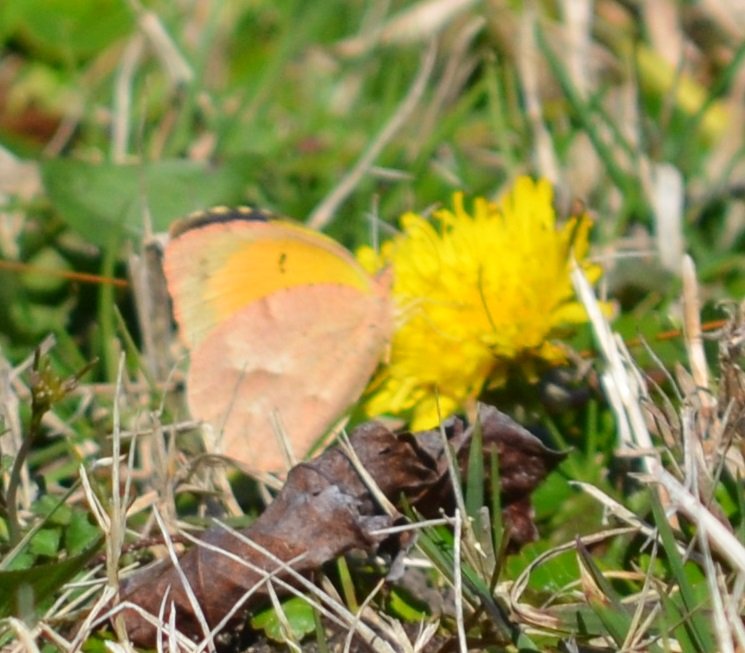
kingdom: Animalia
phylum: Arthropoda
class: Insecta
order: Lepidoptera
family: Pieridae
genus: Abaeis
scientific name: Abaeis nicippe
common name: Sleepy Orange
